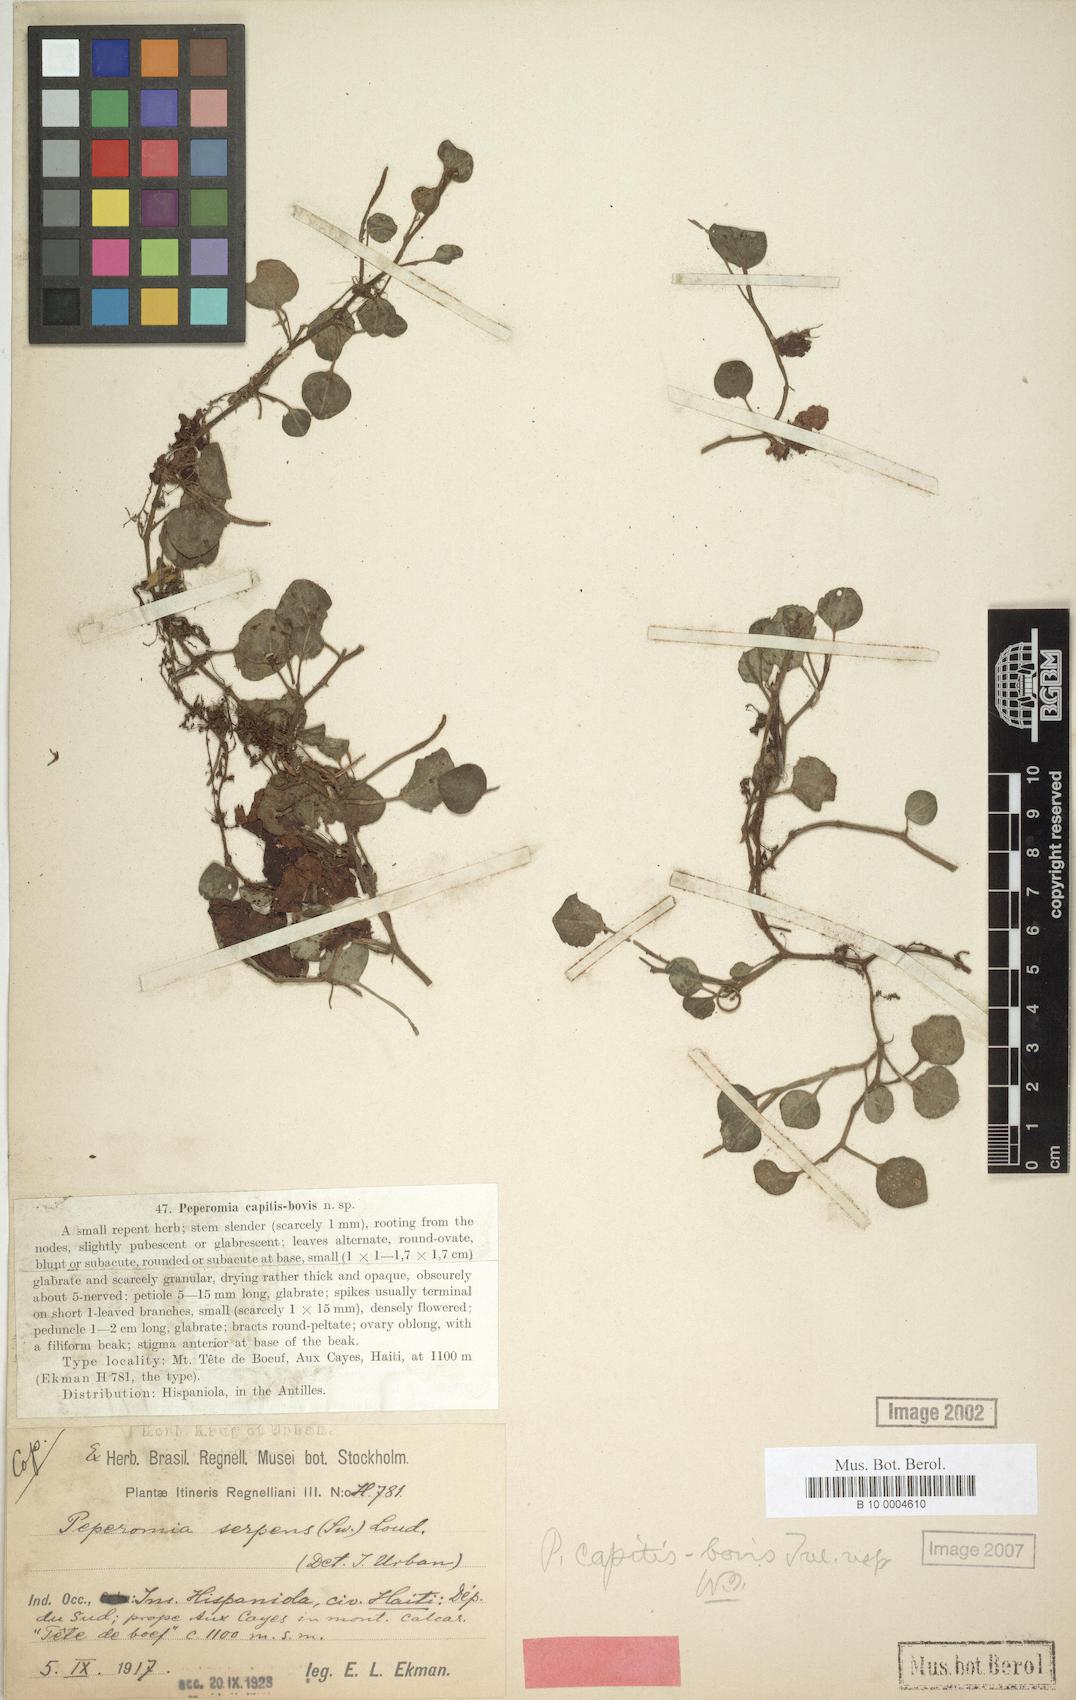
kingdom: Plantae
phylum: Tracheophyta
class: Magnoliopsida
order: Piperales
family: Piperaceae
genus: Peperomia
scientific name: Peperomia capitis-bovis
